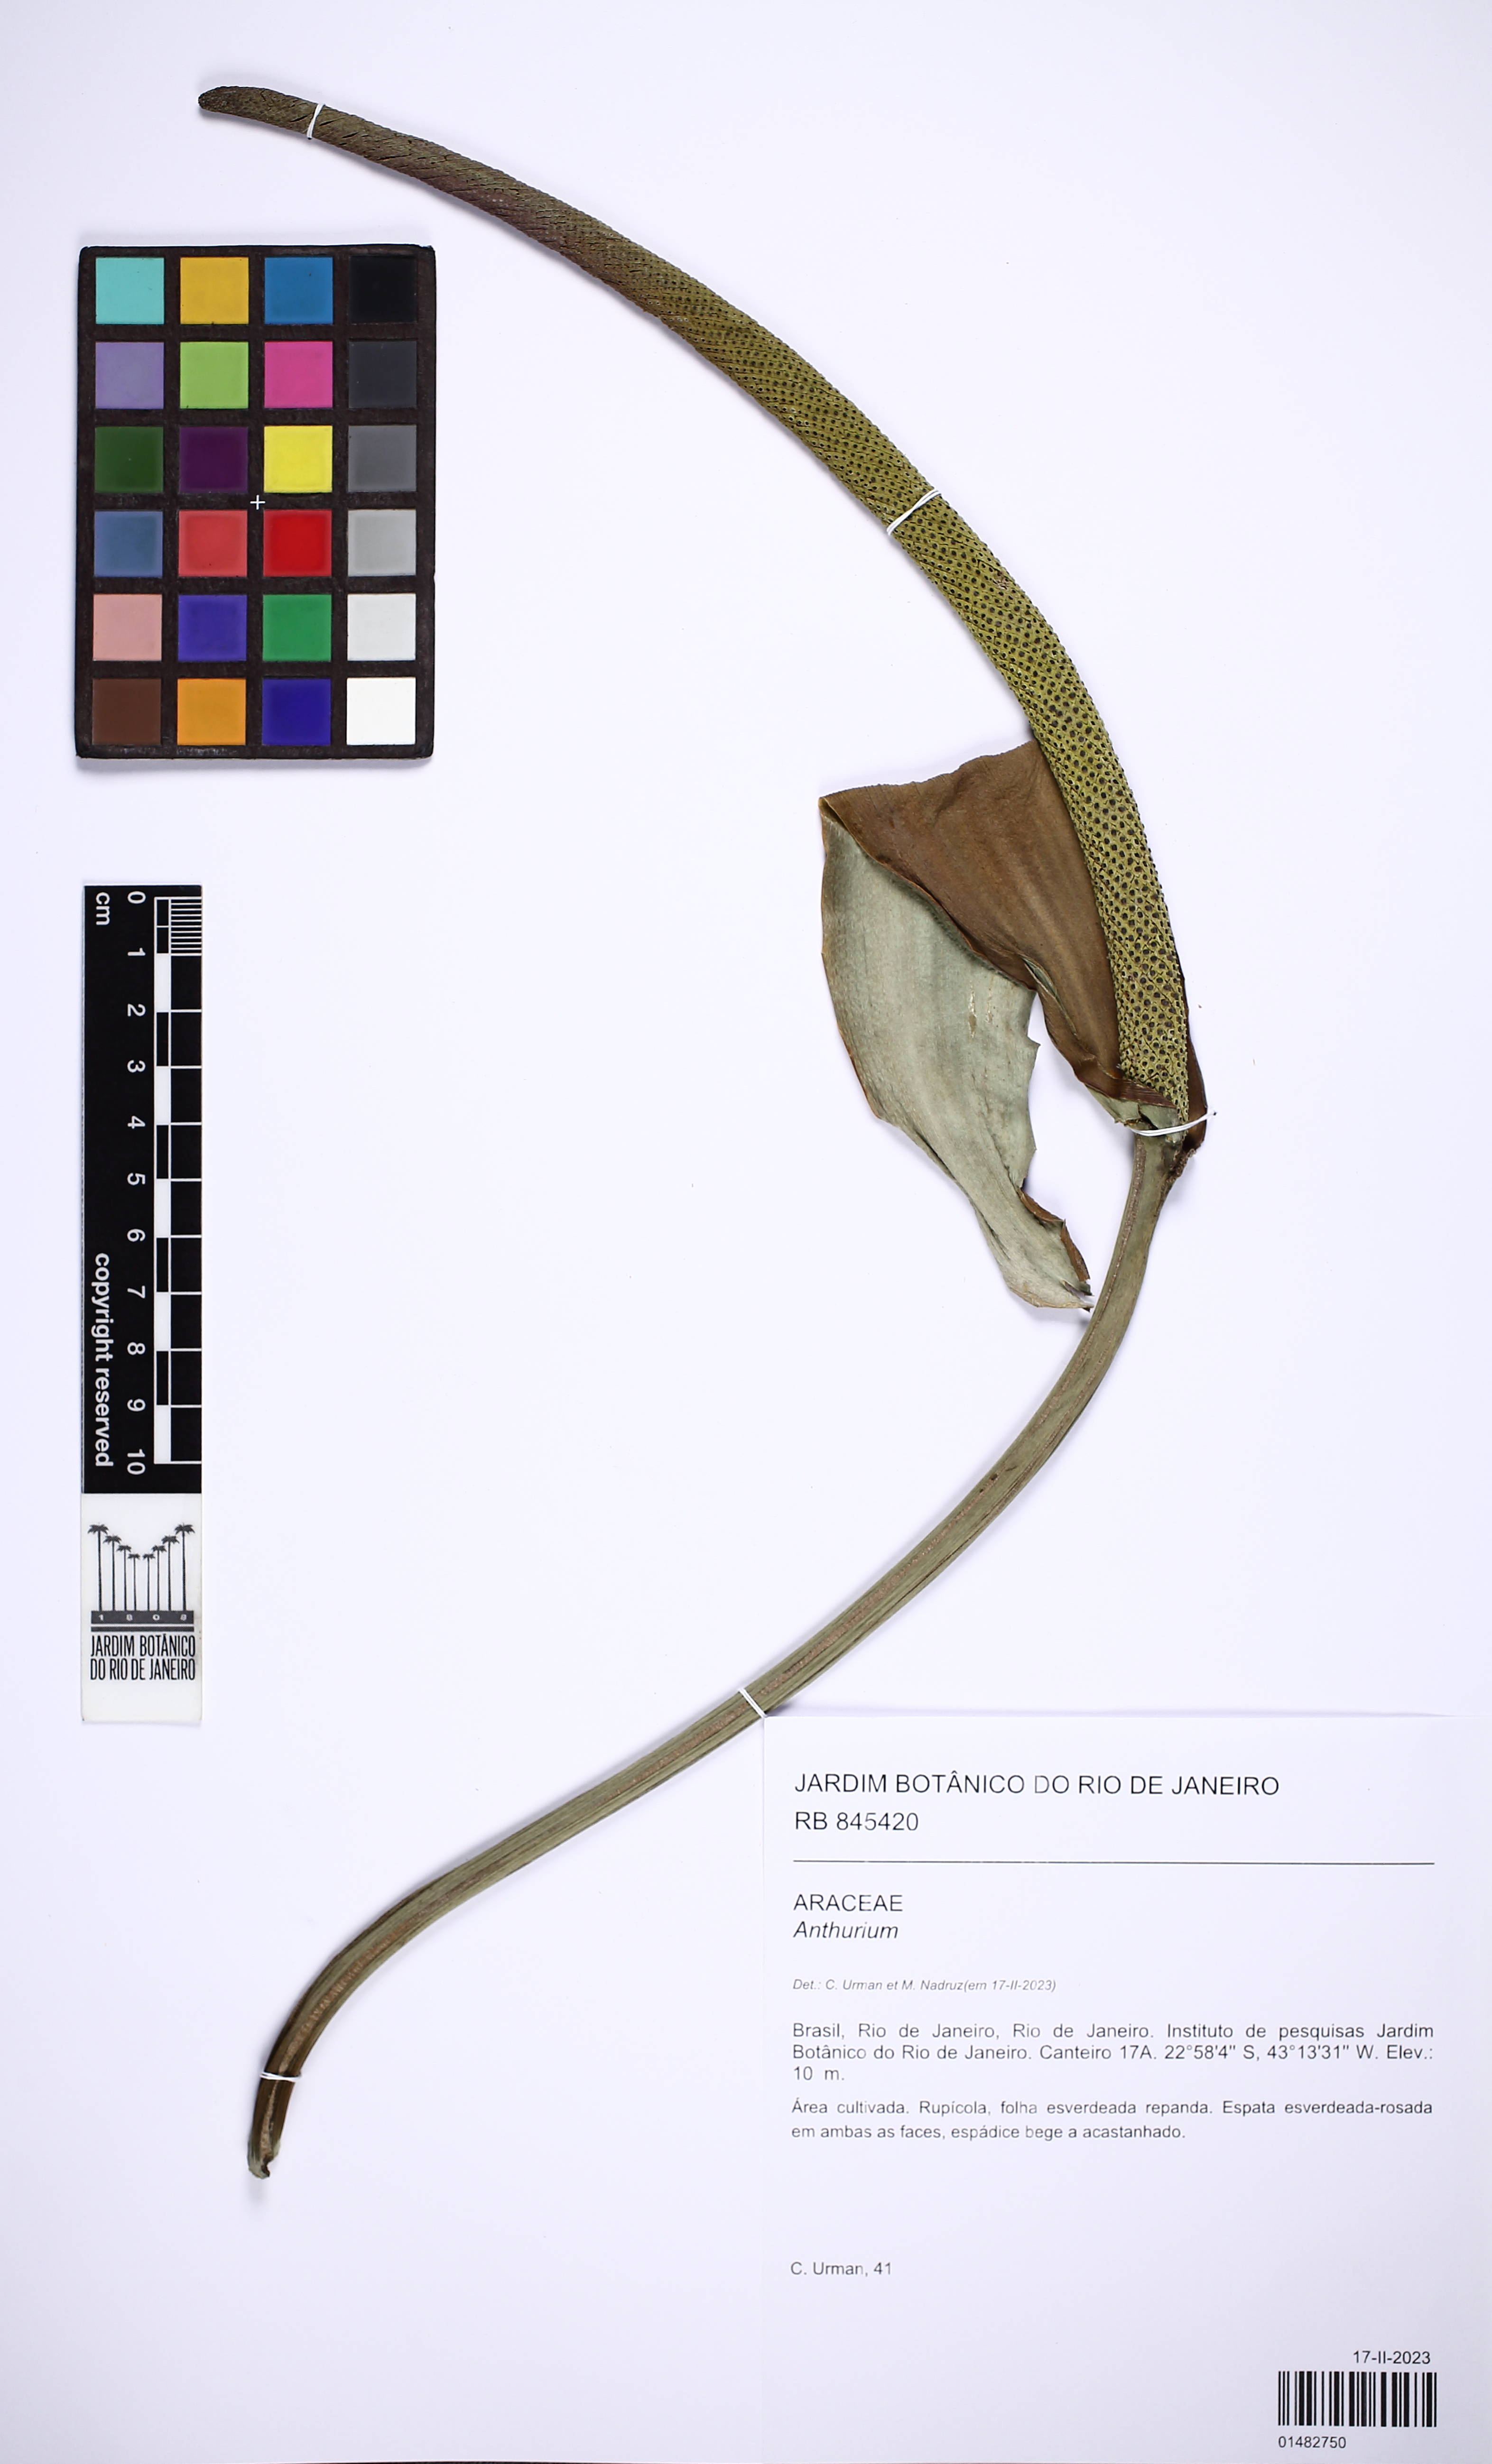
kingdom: Plantae
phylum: Tracheophyta
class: Liliopsida
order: Alismatales
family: Araceae
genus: Anthurium
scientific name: Anthurium santaritense
